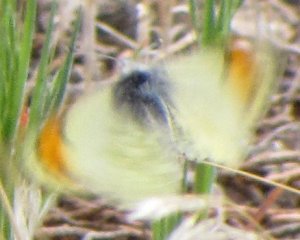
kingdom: Animalia
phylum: Arthropoda
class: Insecta
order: Lepidoptera
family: Pieridae
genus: Anthocharis
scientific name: Anthocharis sara
